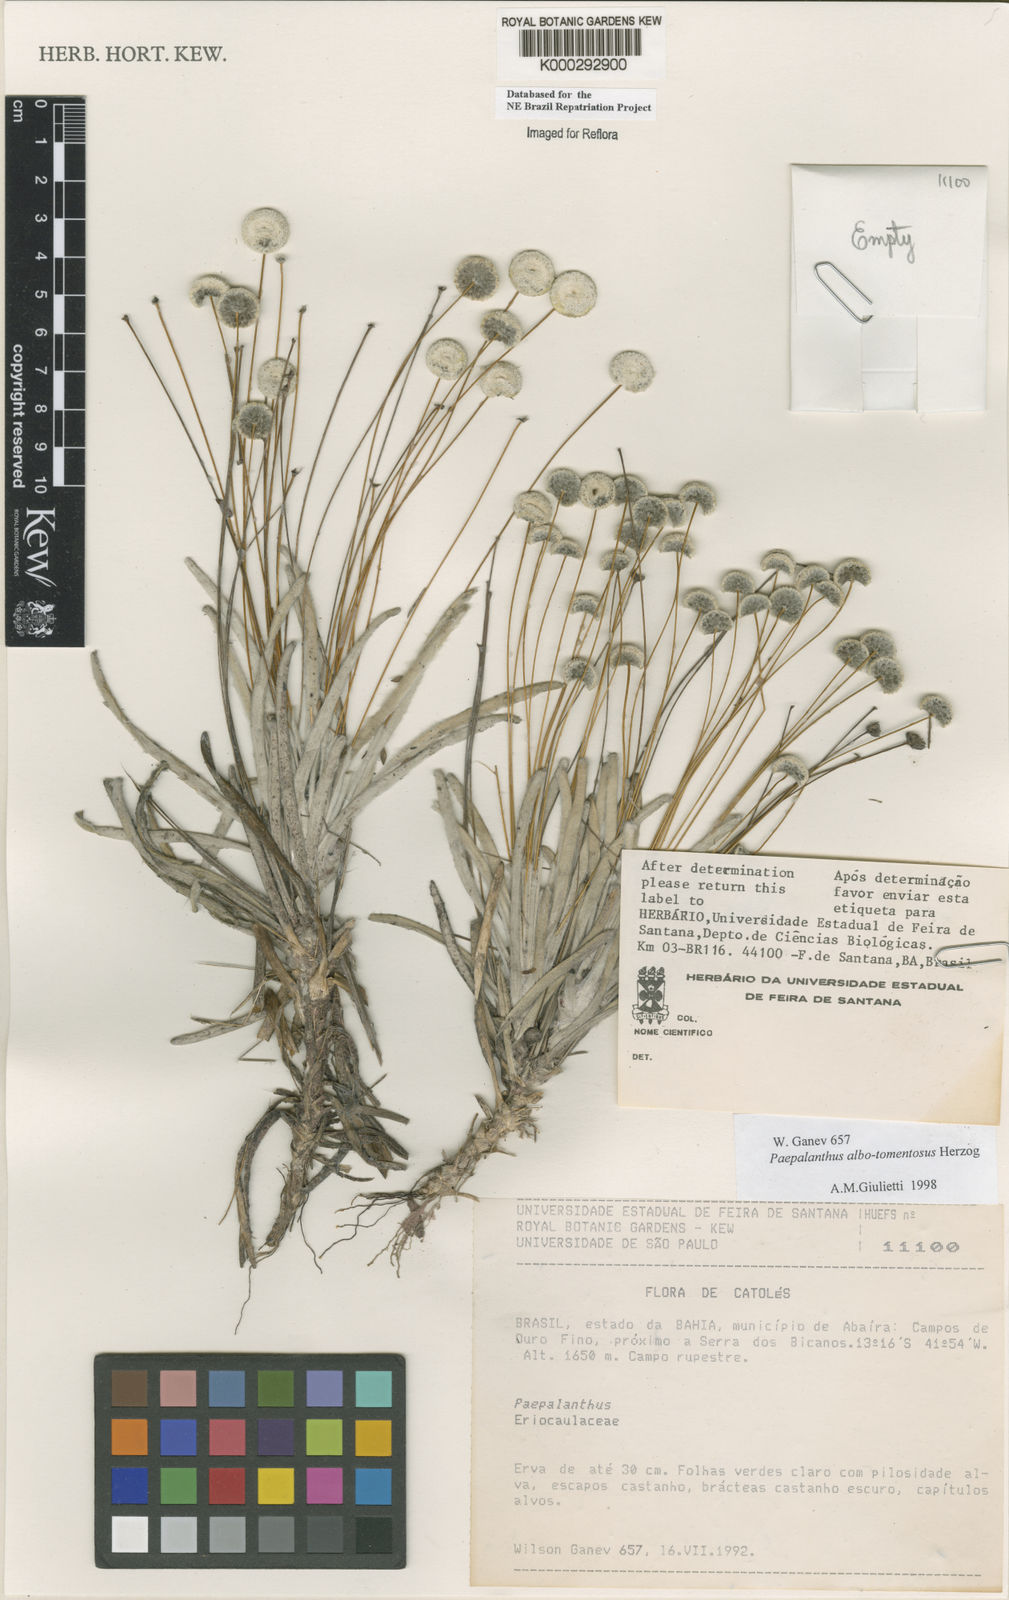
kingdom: Plantae
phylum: Tracheophyta
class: Liliopsida
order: Poales
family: Eriocaulaceae
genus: Paepalanthus
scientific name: Paepalanthus albotomentosus
